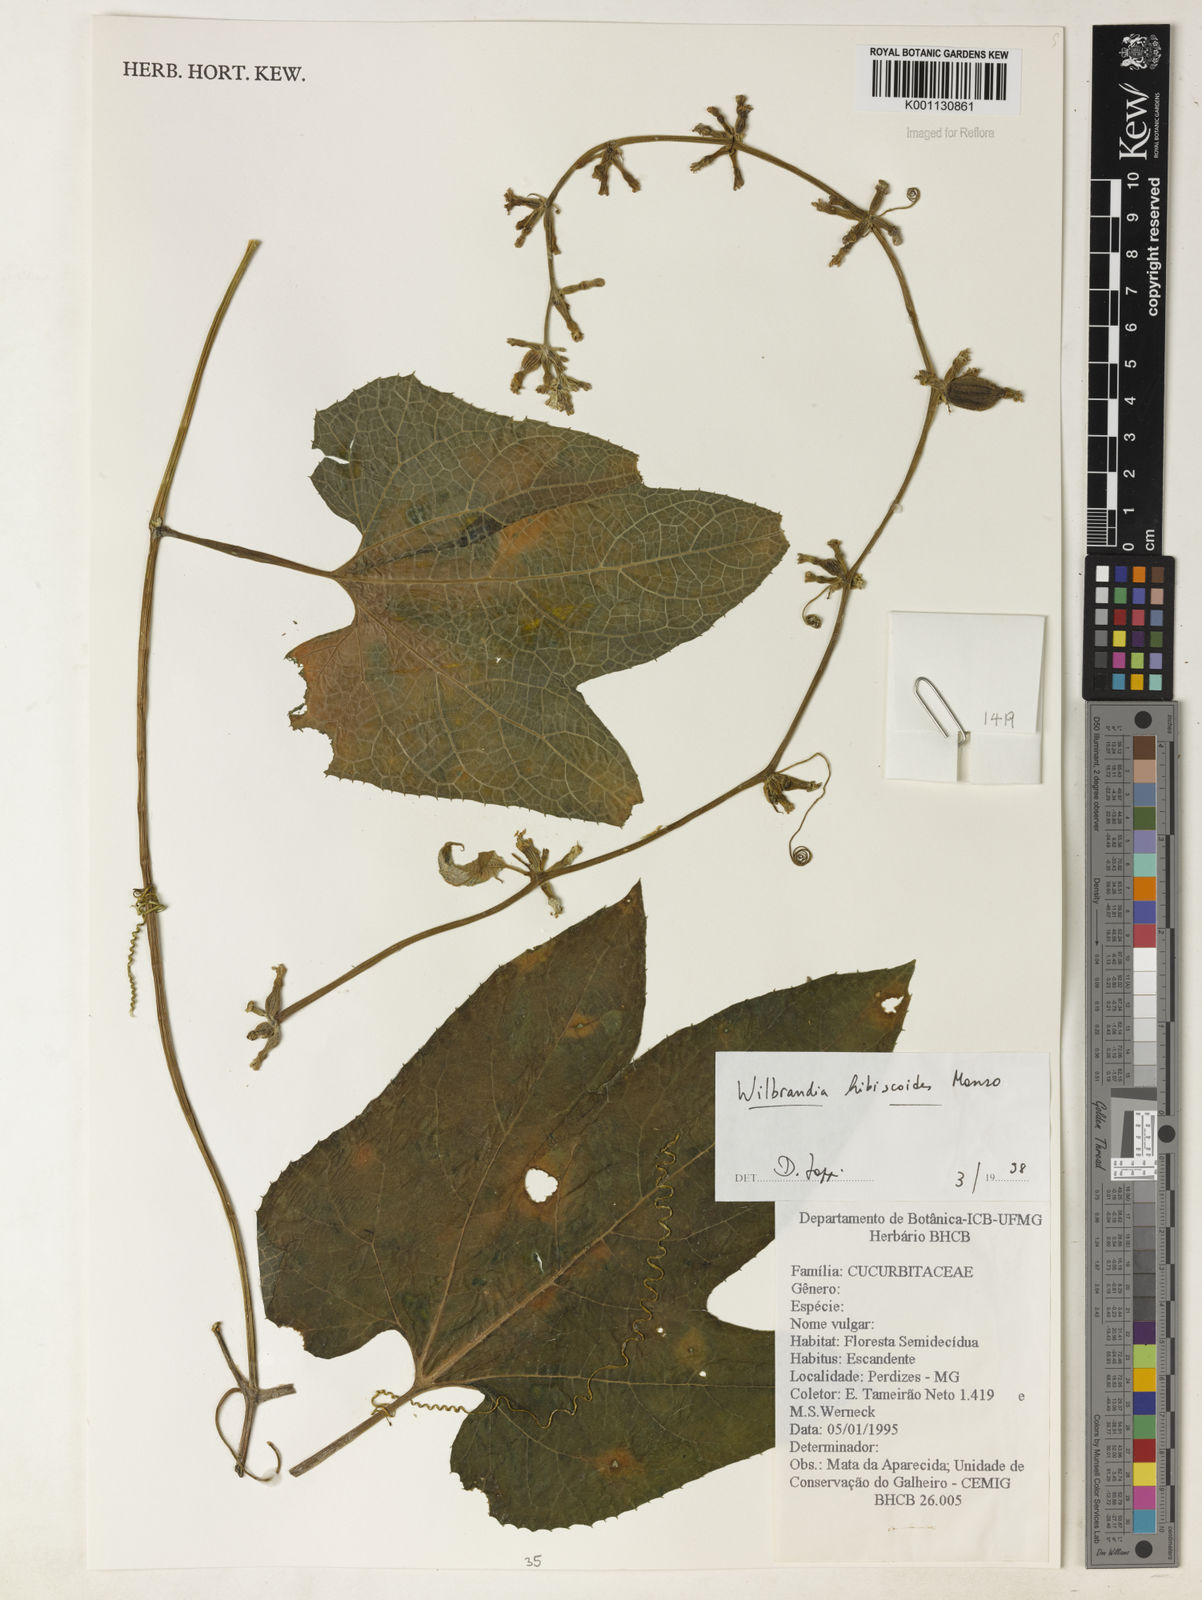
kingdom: Plantae
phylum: Tracheophyta
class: Magnoliopsida
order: Cucurbitales
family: Cucurbitaceae
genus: Wilbrandia
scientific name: Wilbrandia hibiscoides
